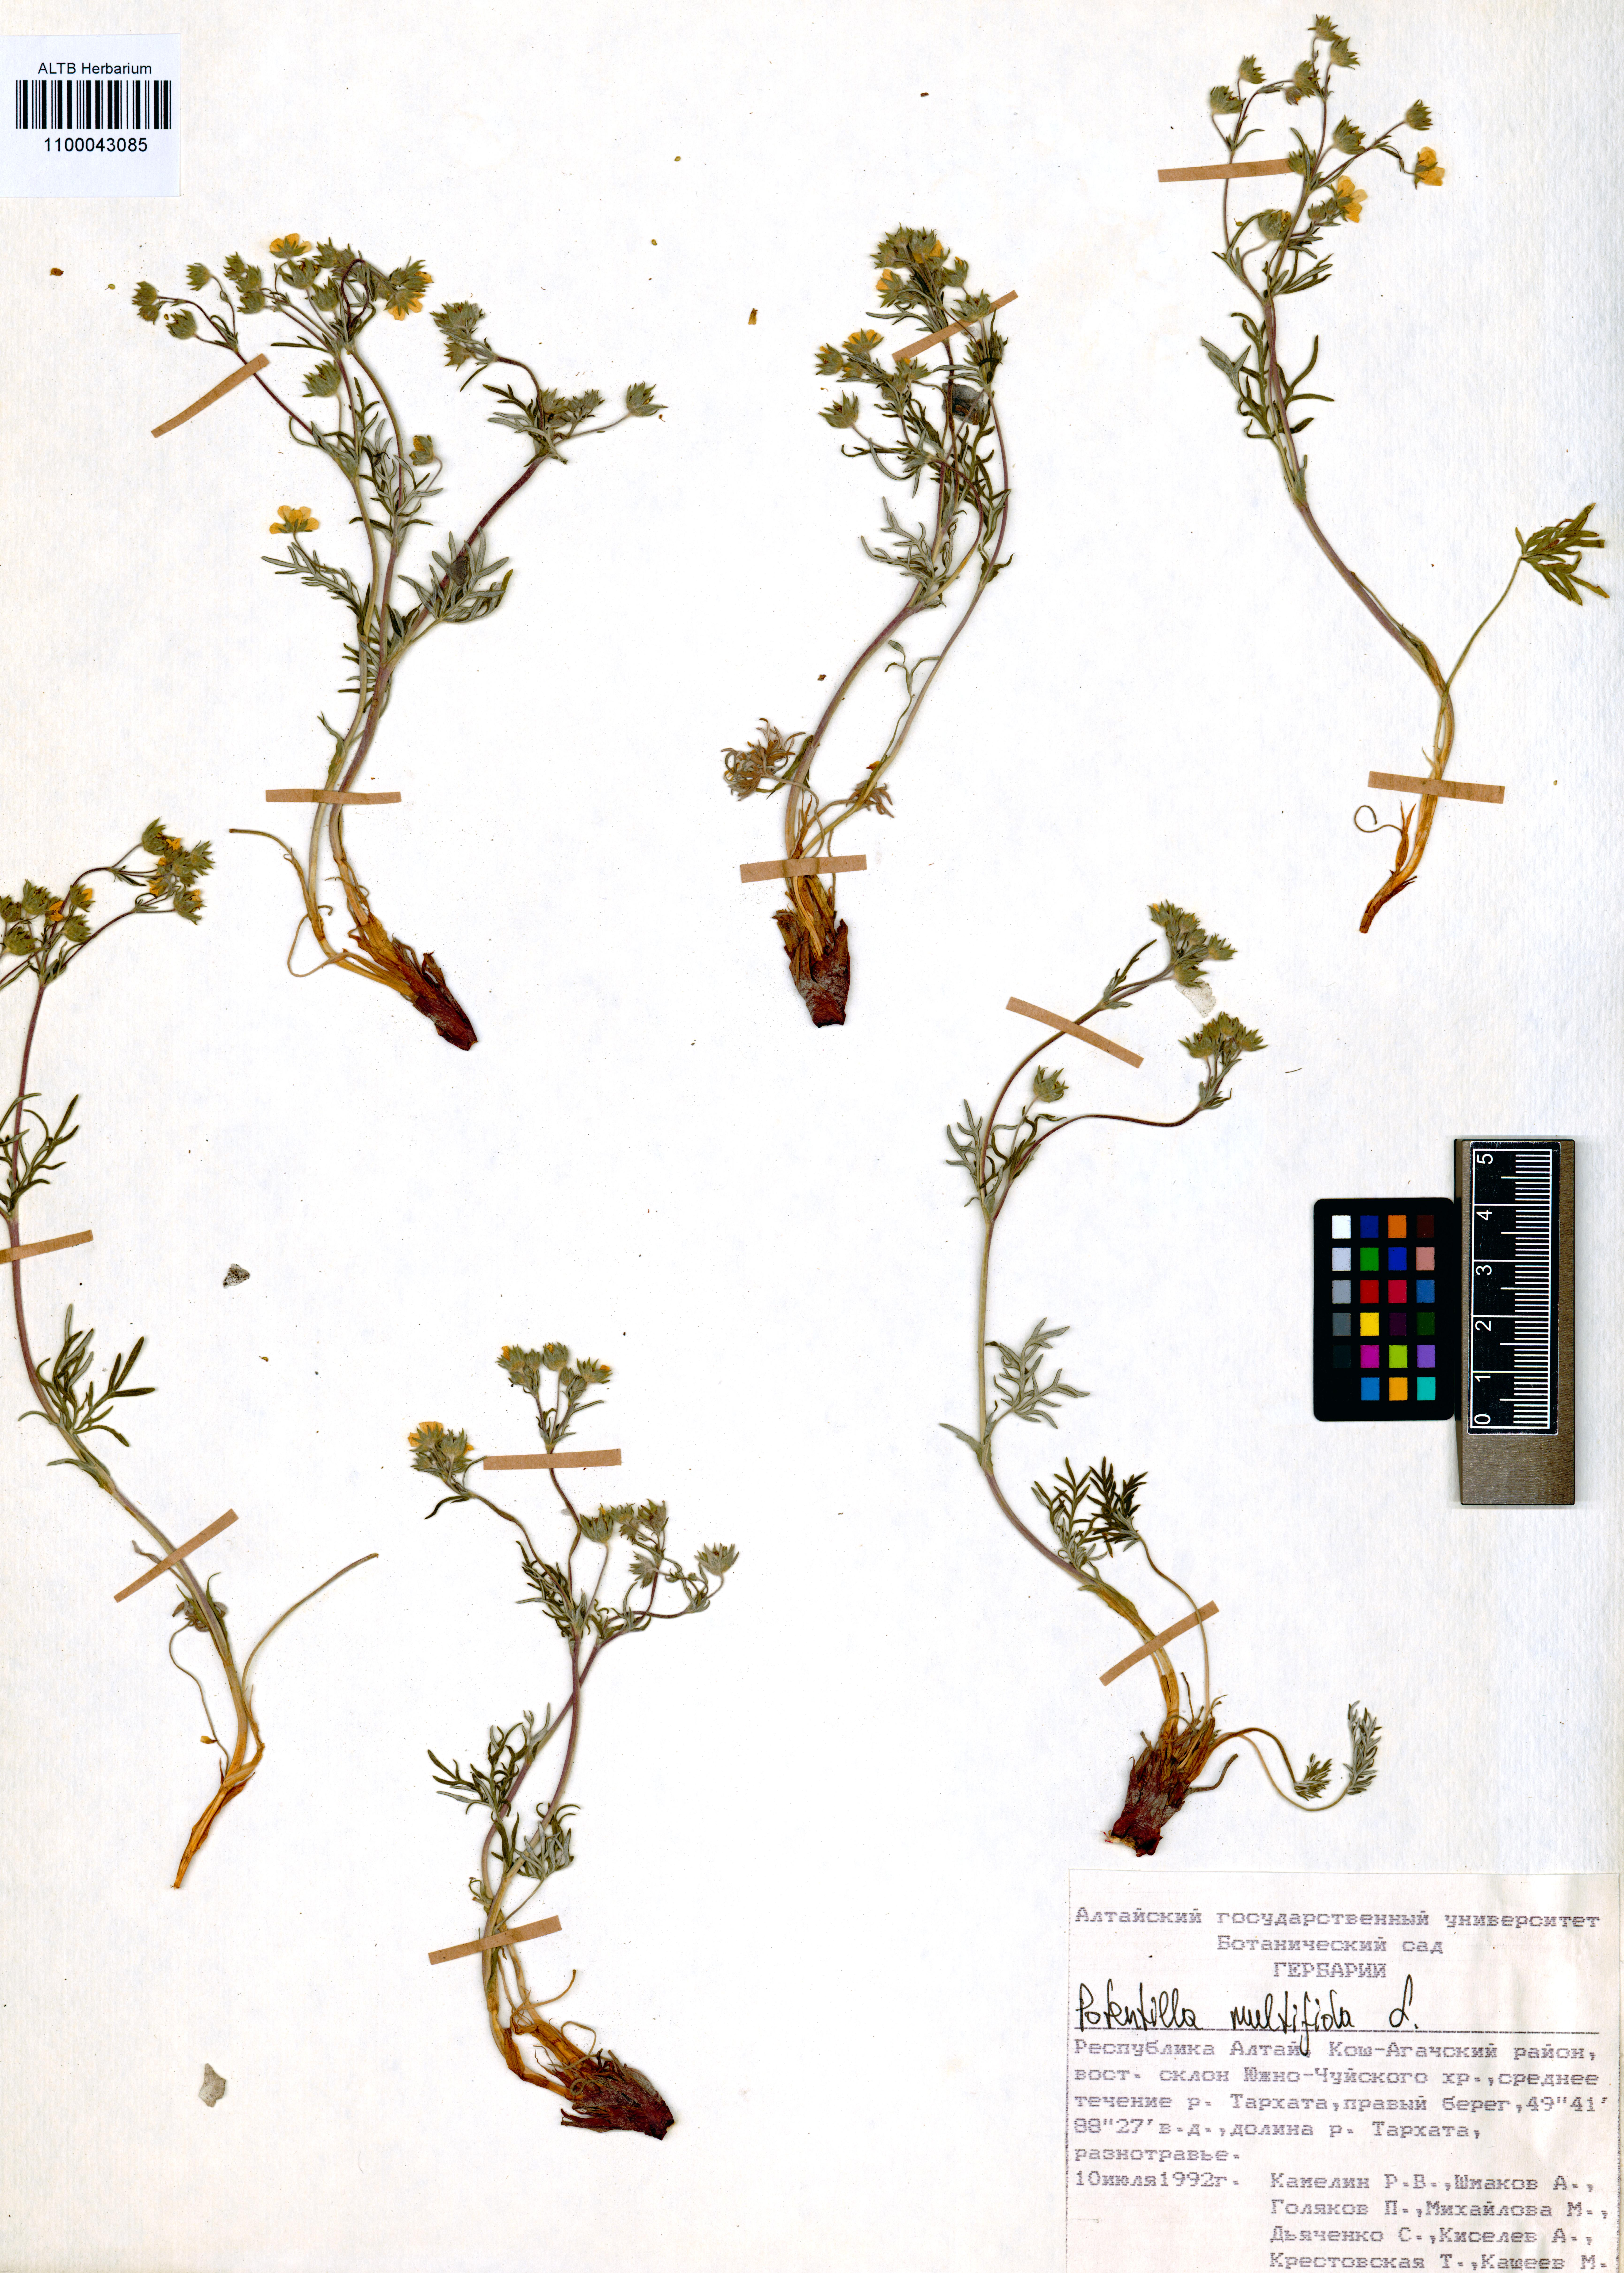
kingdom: Plantae
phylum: Tracheophyta
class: Magnoliopsida
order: Rosales
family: Rosaceae
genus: Potentilla
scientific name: Potentilla multifida
